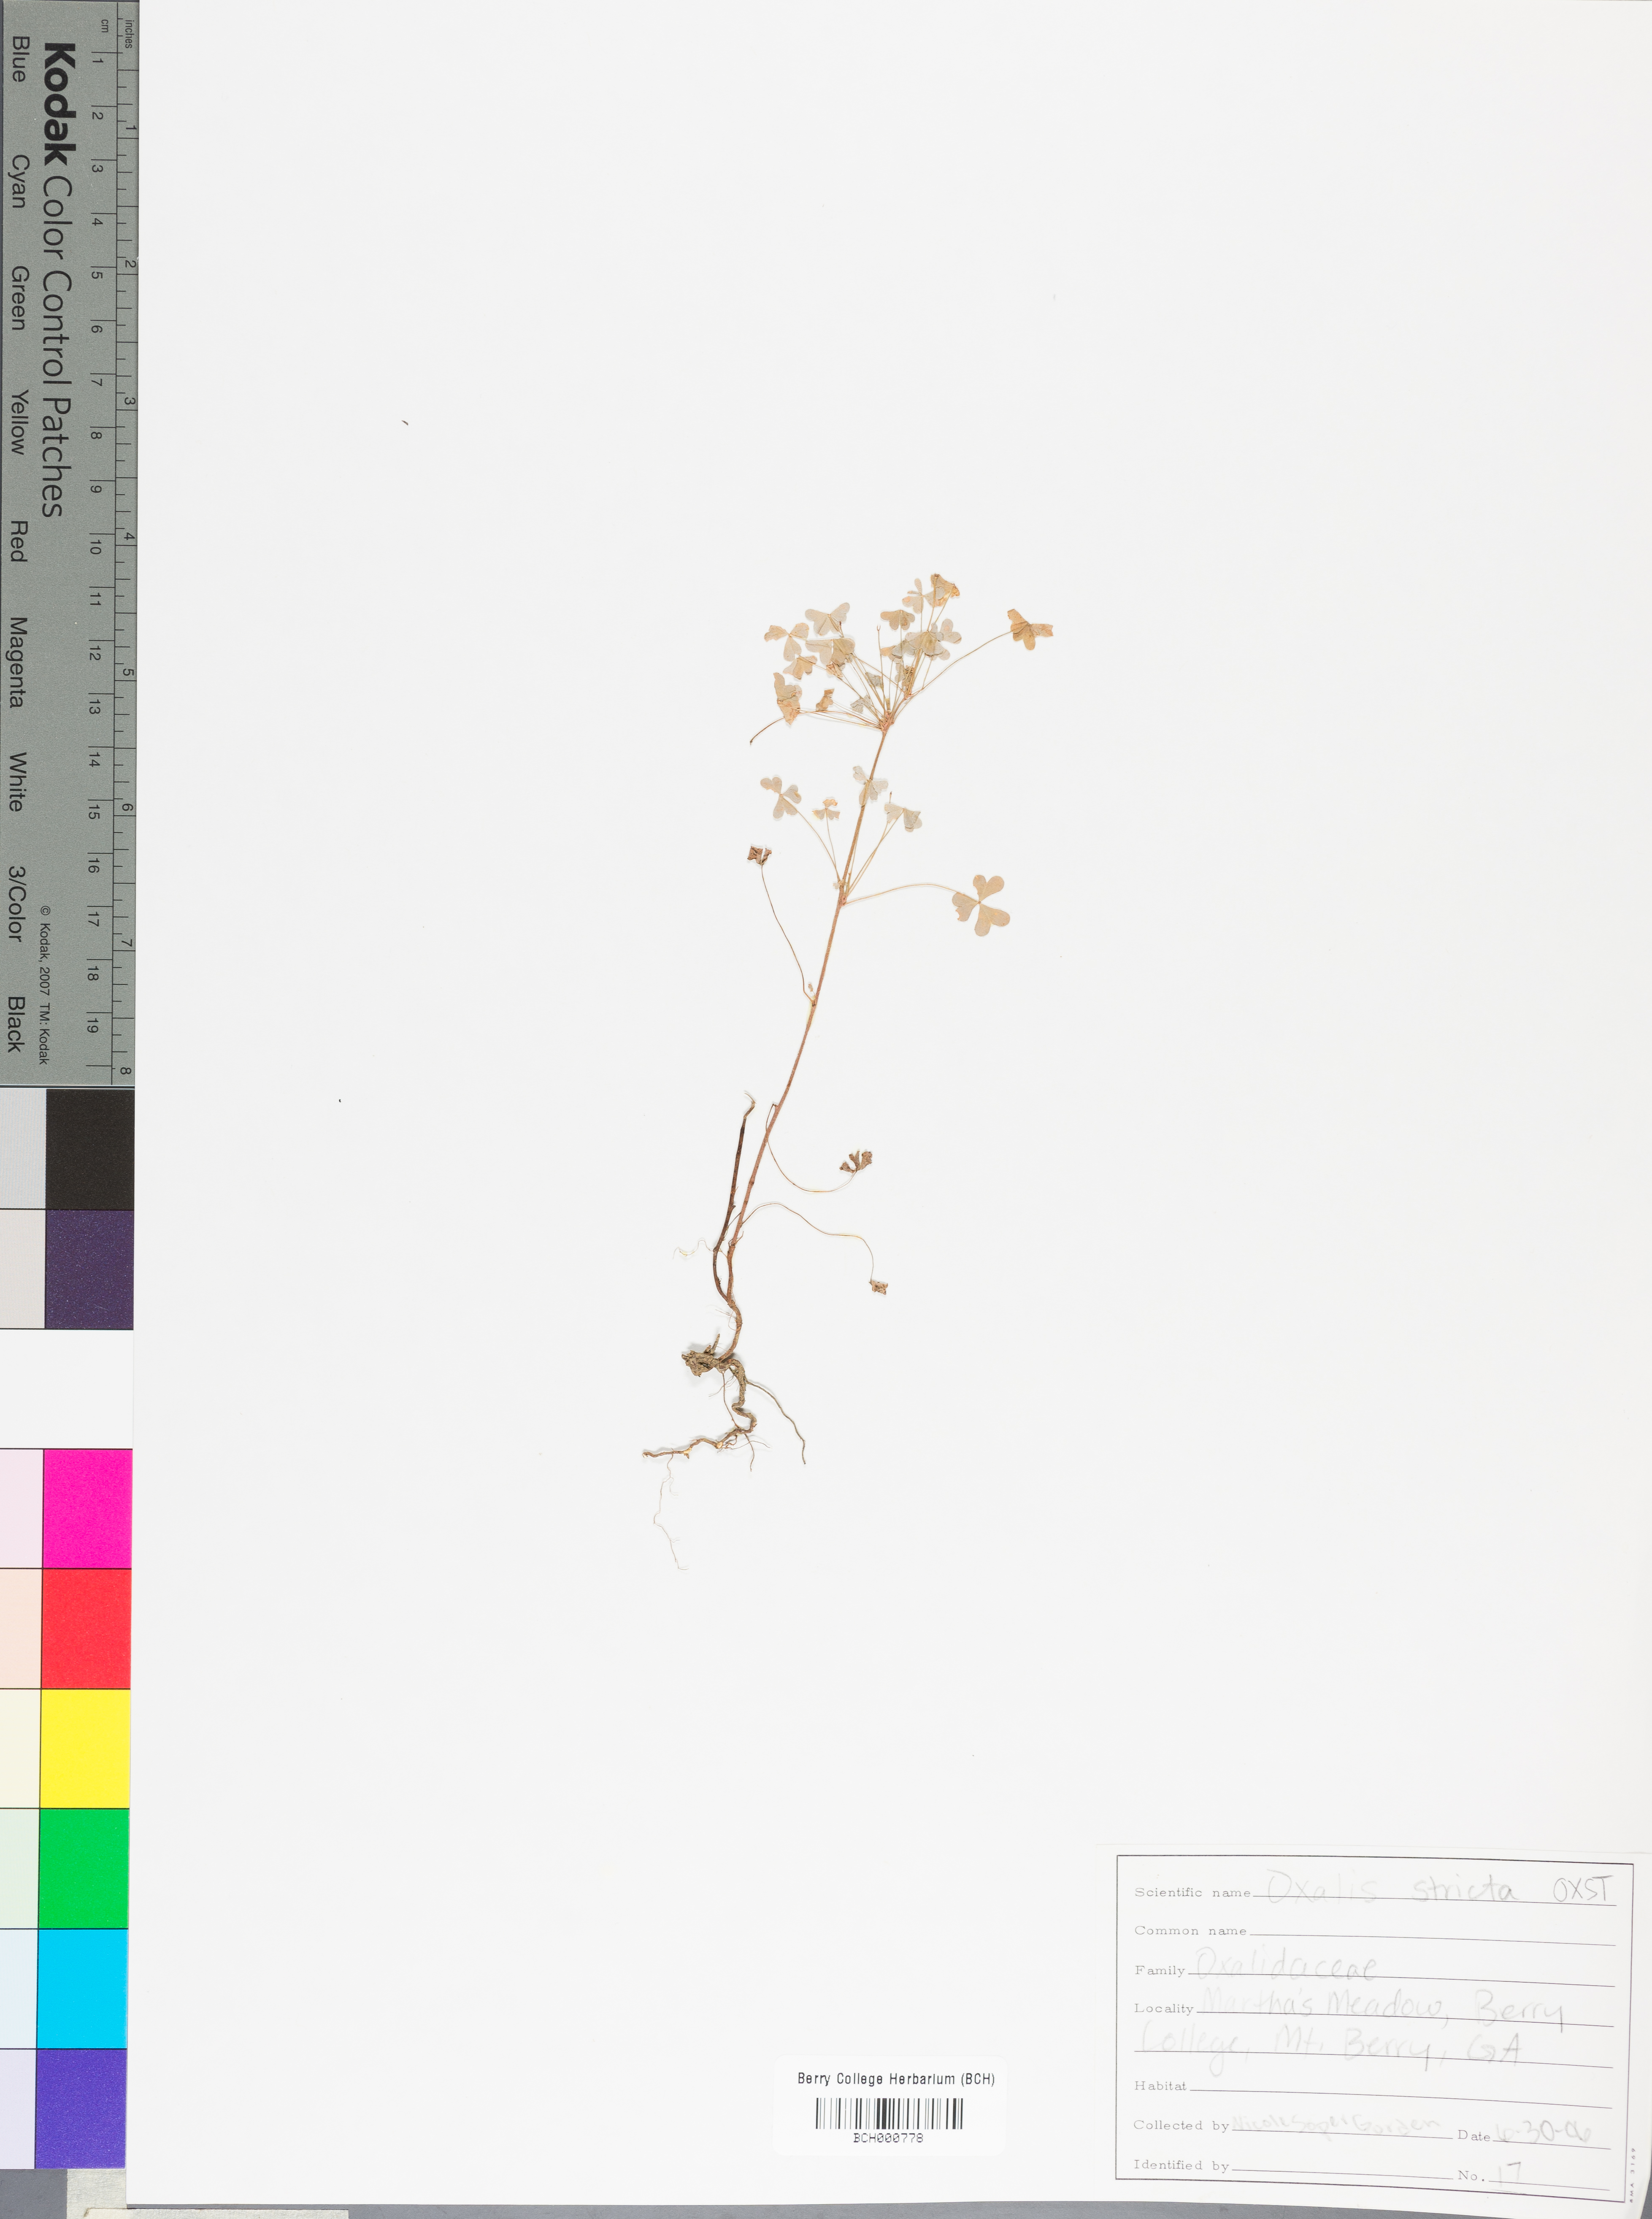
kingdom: Plantae
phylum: Tracheophyta
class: Magnoliopsida
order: Oxalidales
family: Oxalidaceae
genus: Oxalis
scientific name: Oxalis stricta
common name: Upright yellow-sorrel
